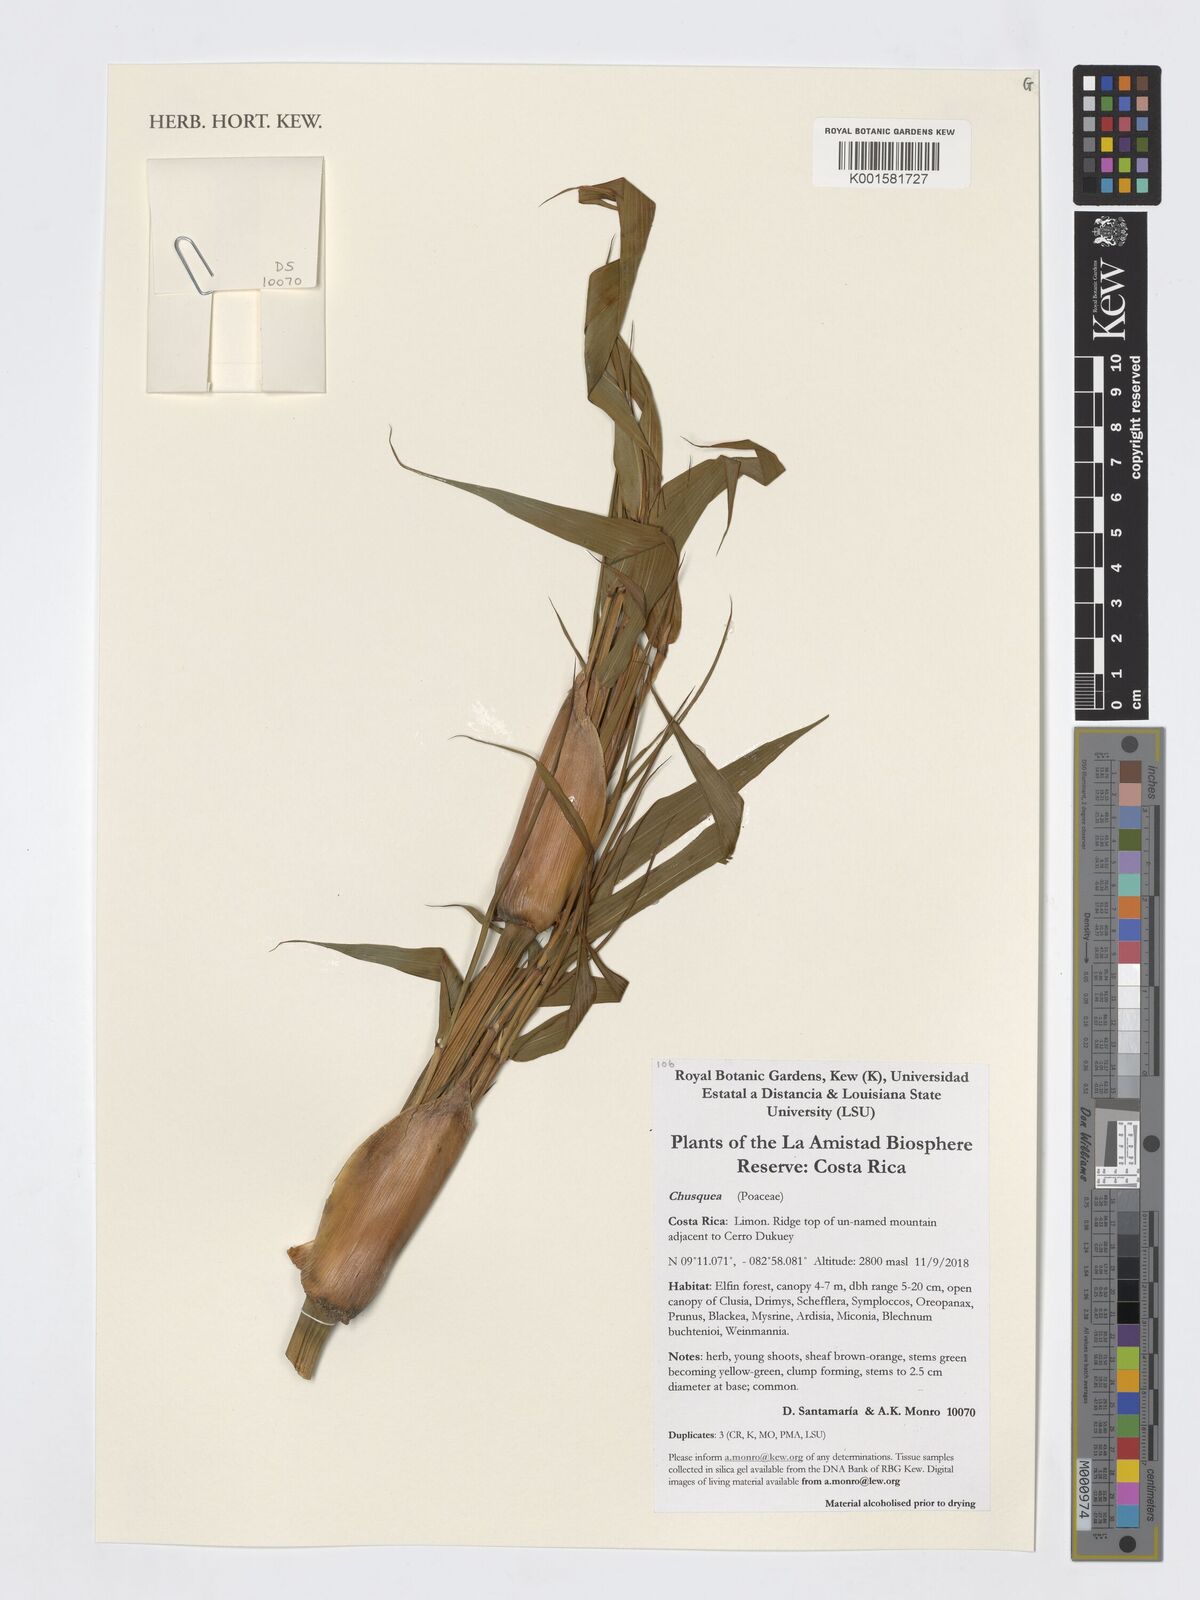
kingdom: Plantae
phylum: Tracheophyta
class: Liliopsida
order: Poales
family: Poaceae
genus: Chusquea
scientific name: Chusquea
